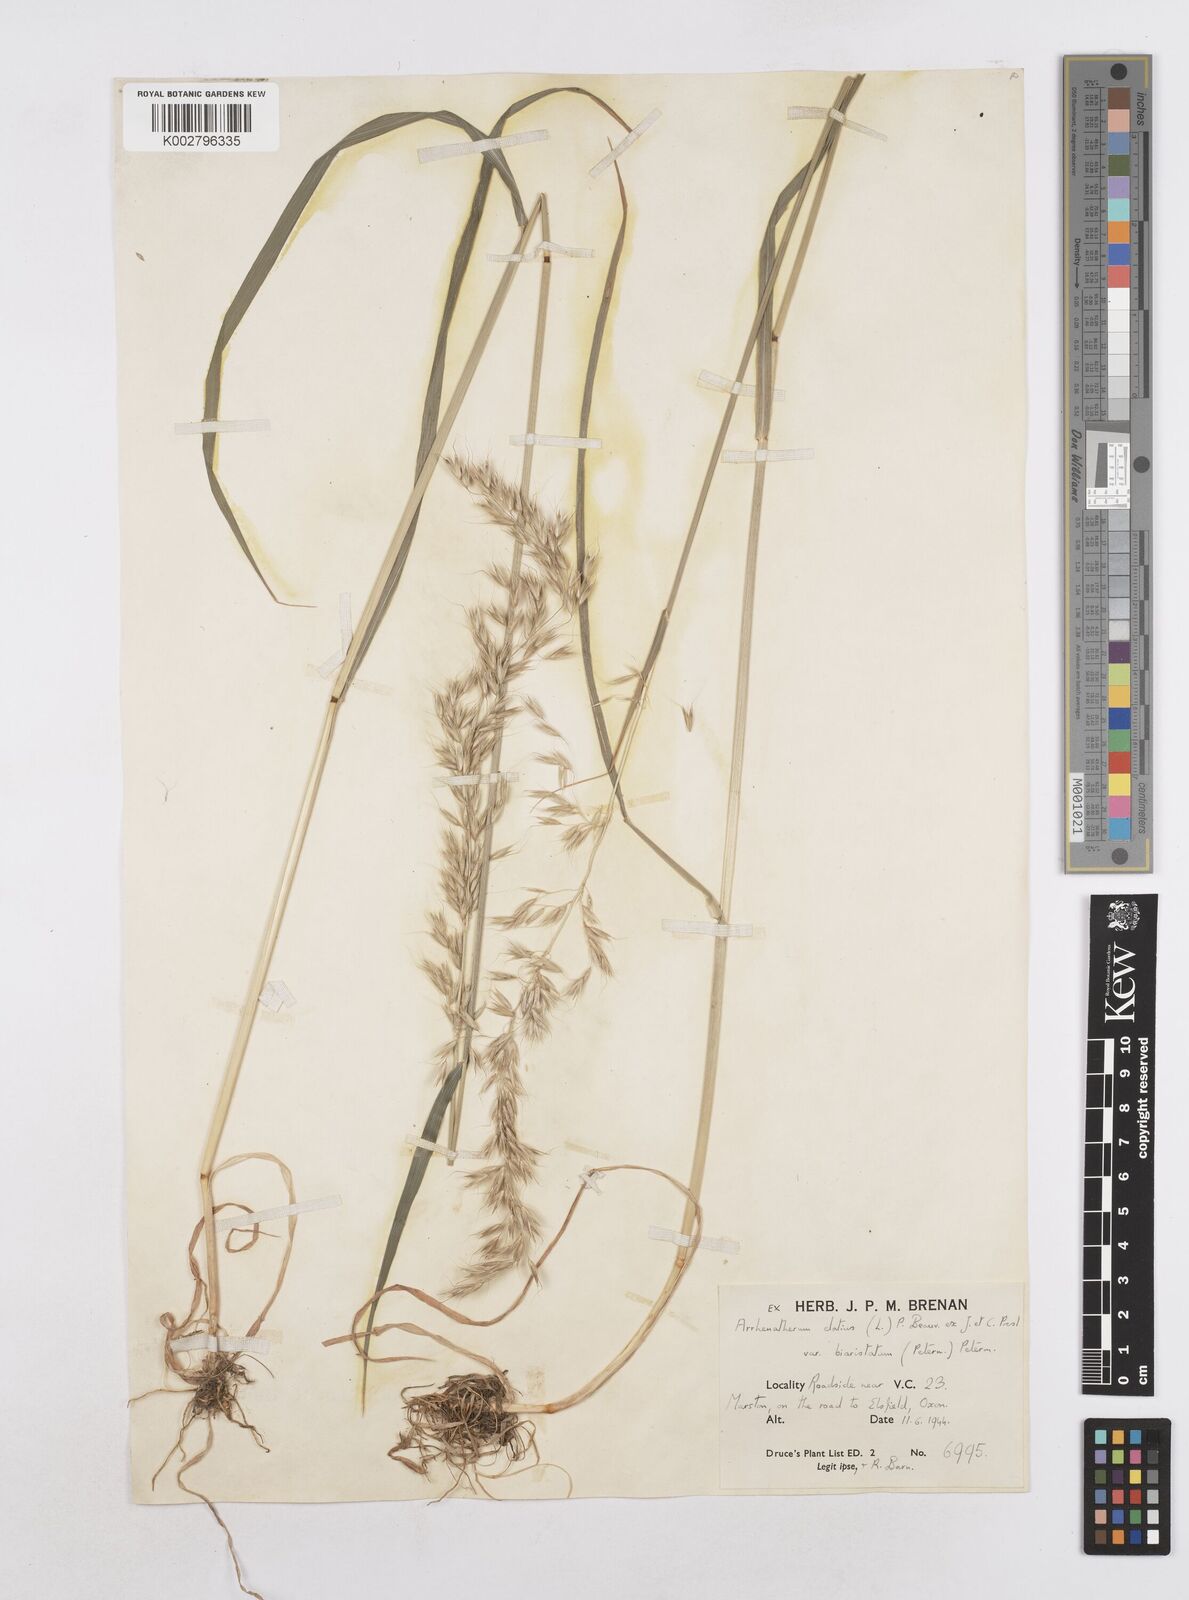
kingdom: Plantae
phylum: Tracheophyta
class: Liliopsida
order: Poales
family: Poaceae
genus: Arrhenatherum
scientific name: Arrhenatherum elatius
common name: Tall oatgrass
